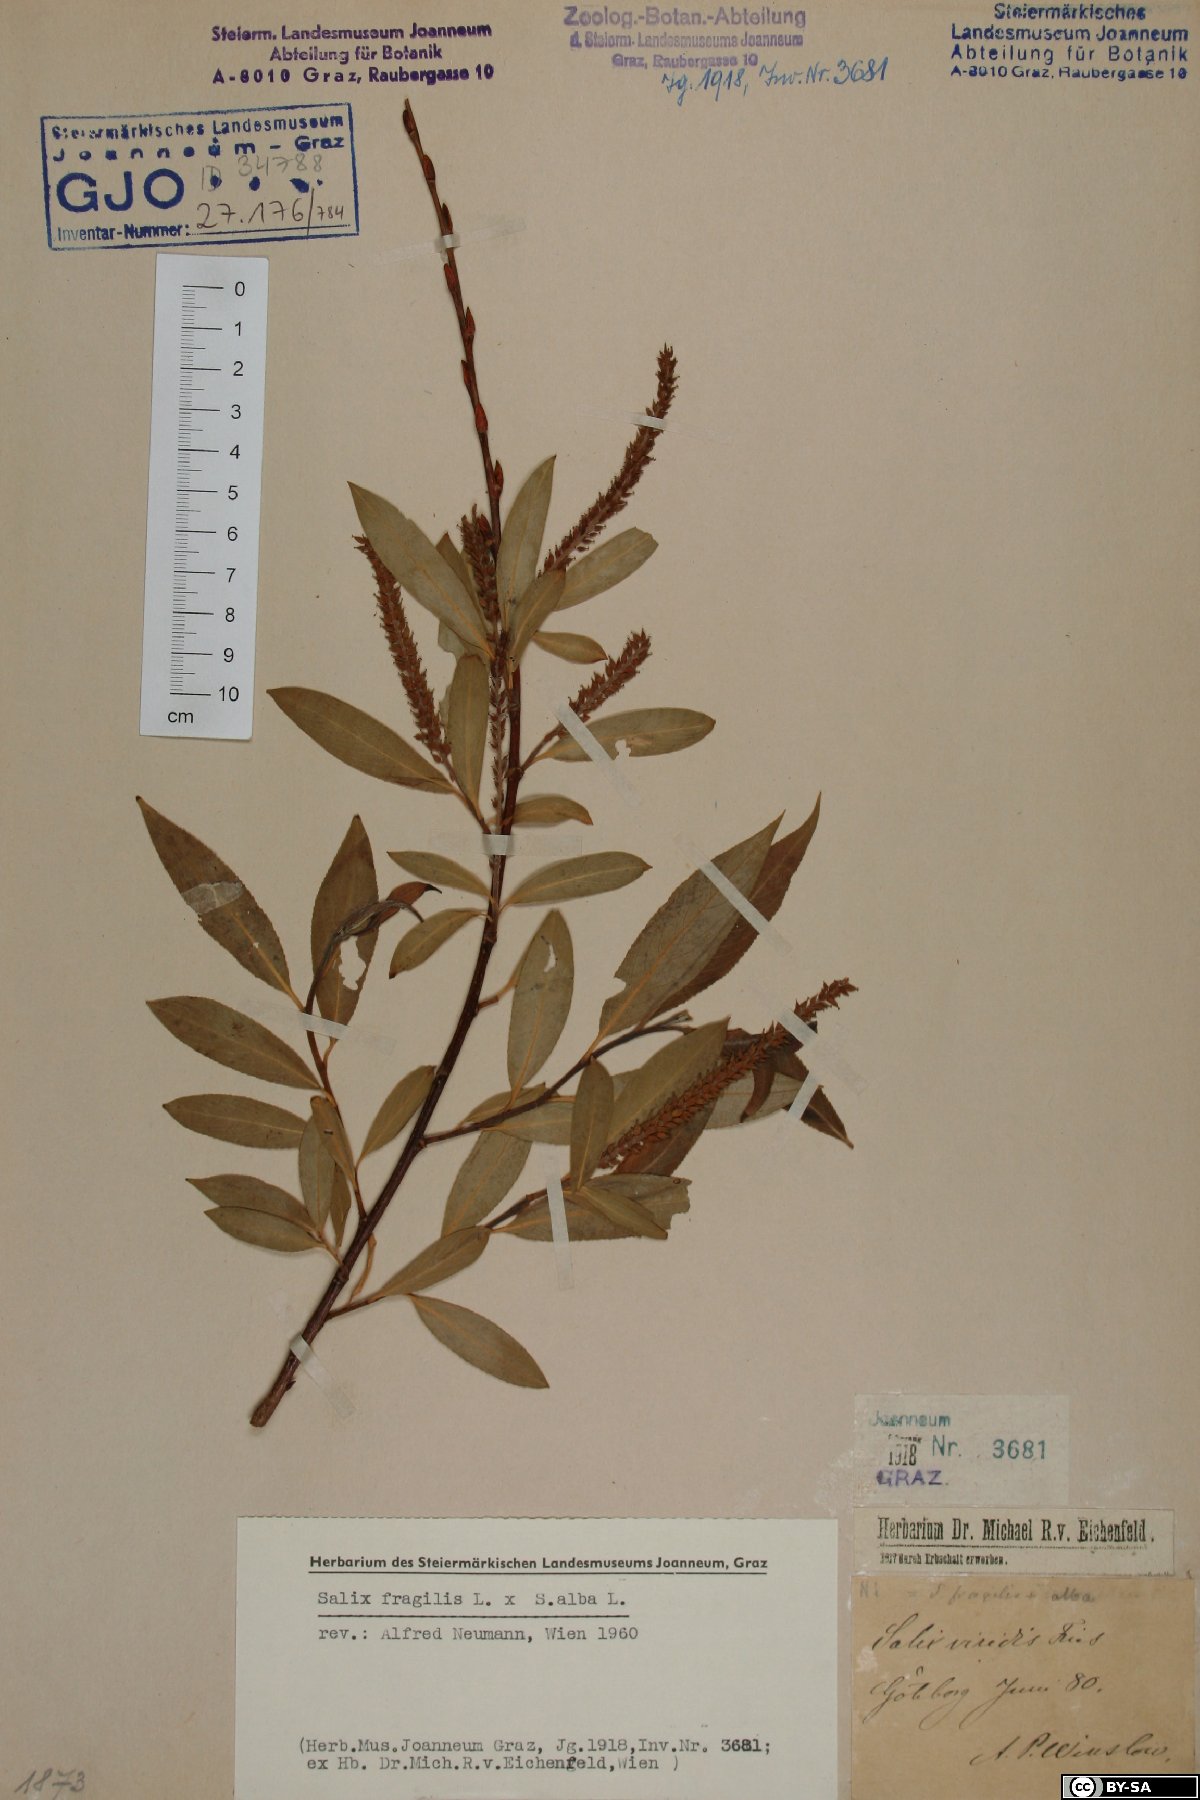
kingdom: Plantae
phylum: Tracheophyta
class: Magnoliopsida
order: Malpighiales
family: Salicaceae
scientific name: Salicaceae
